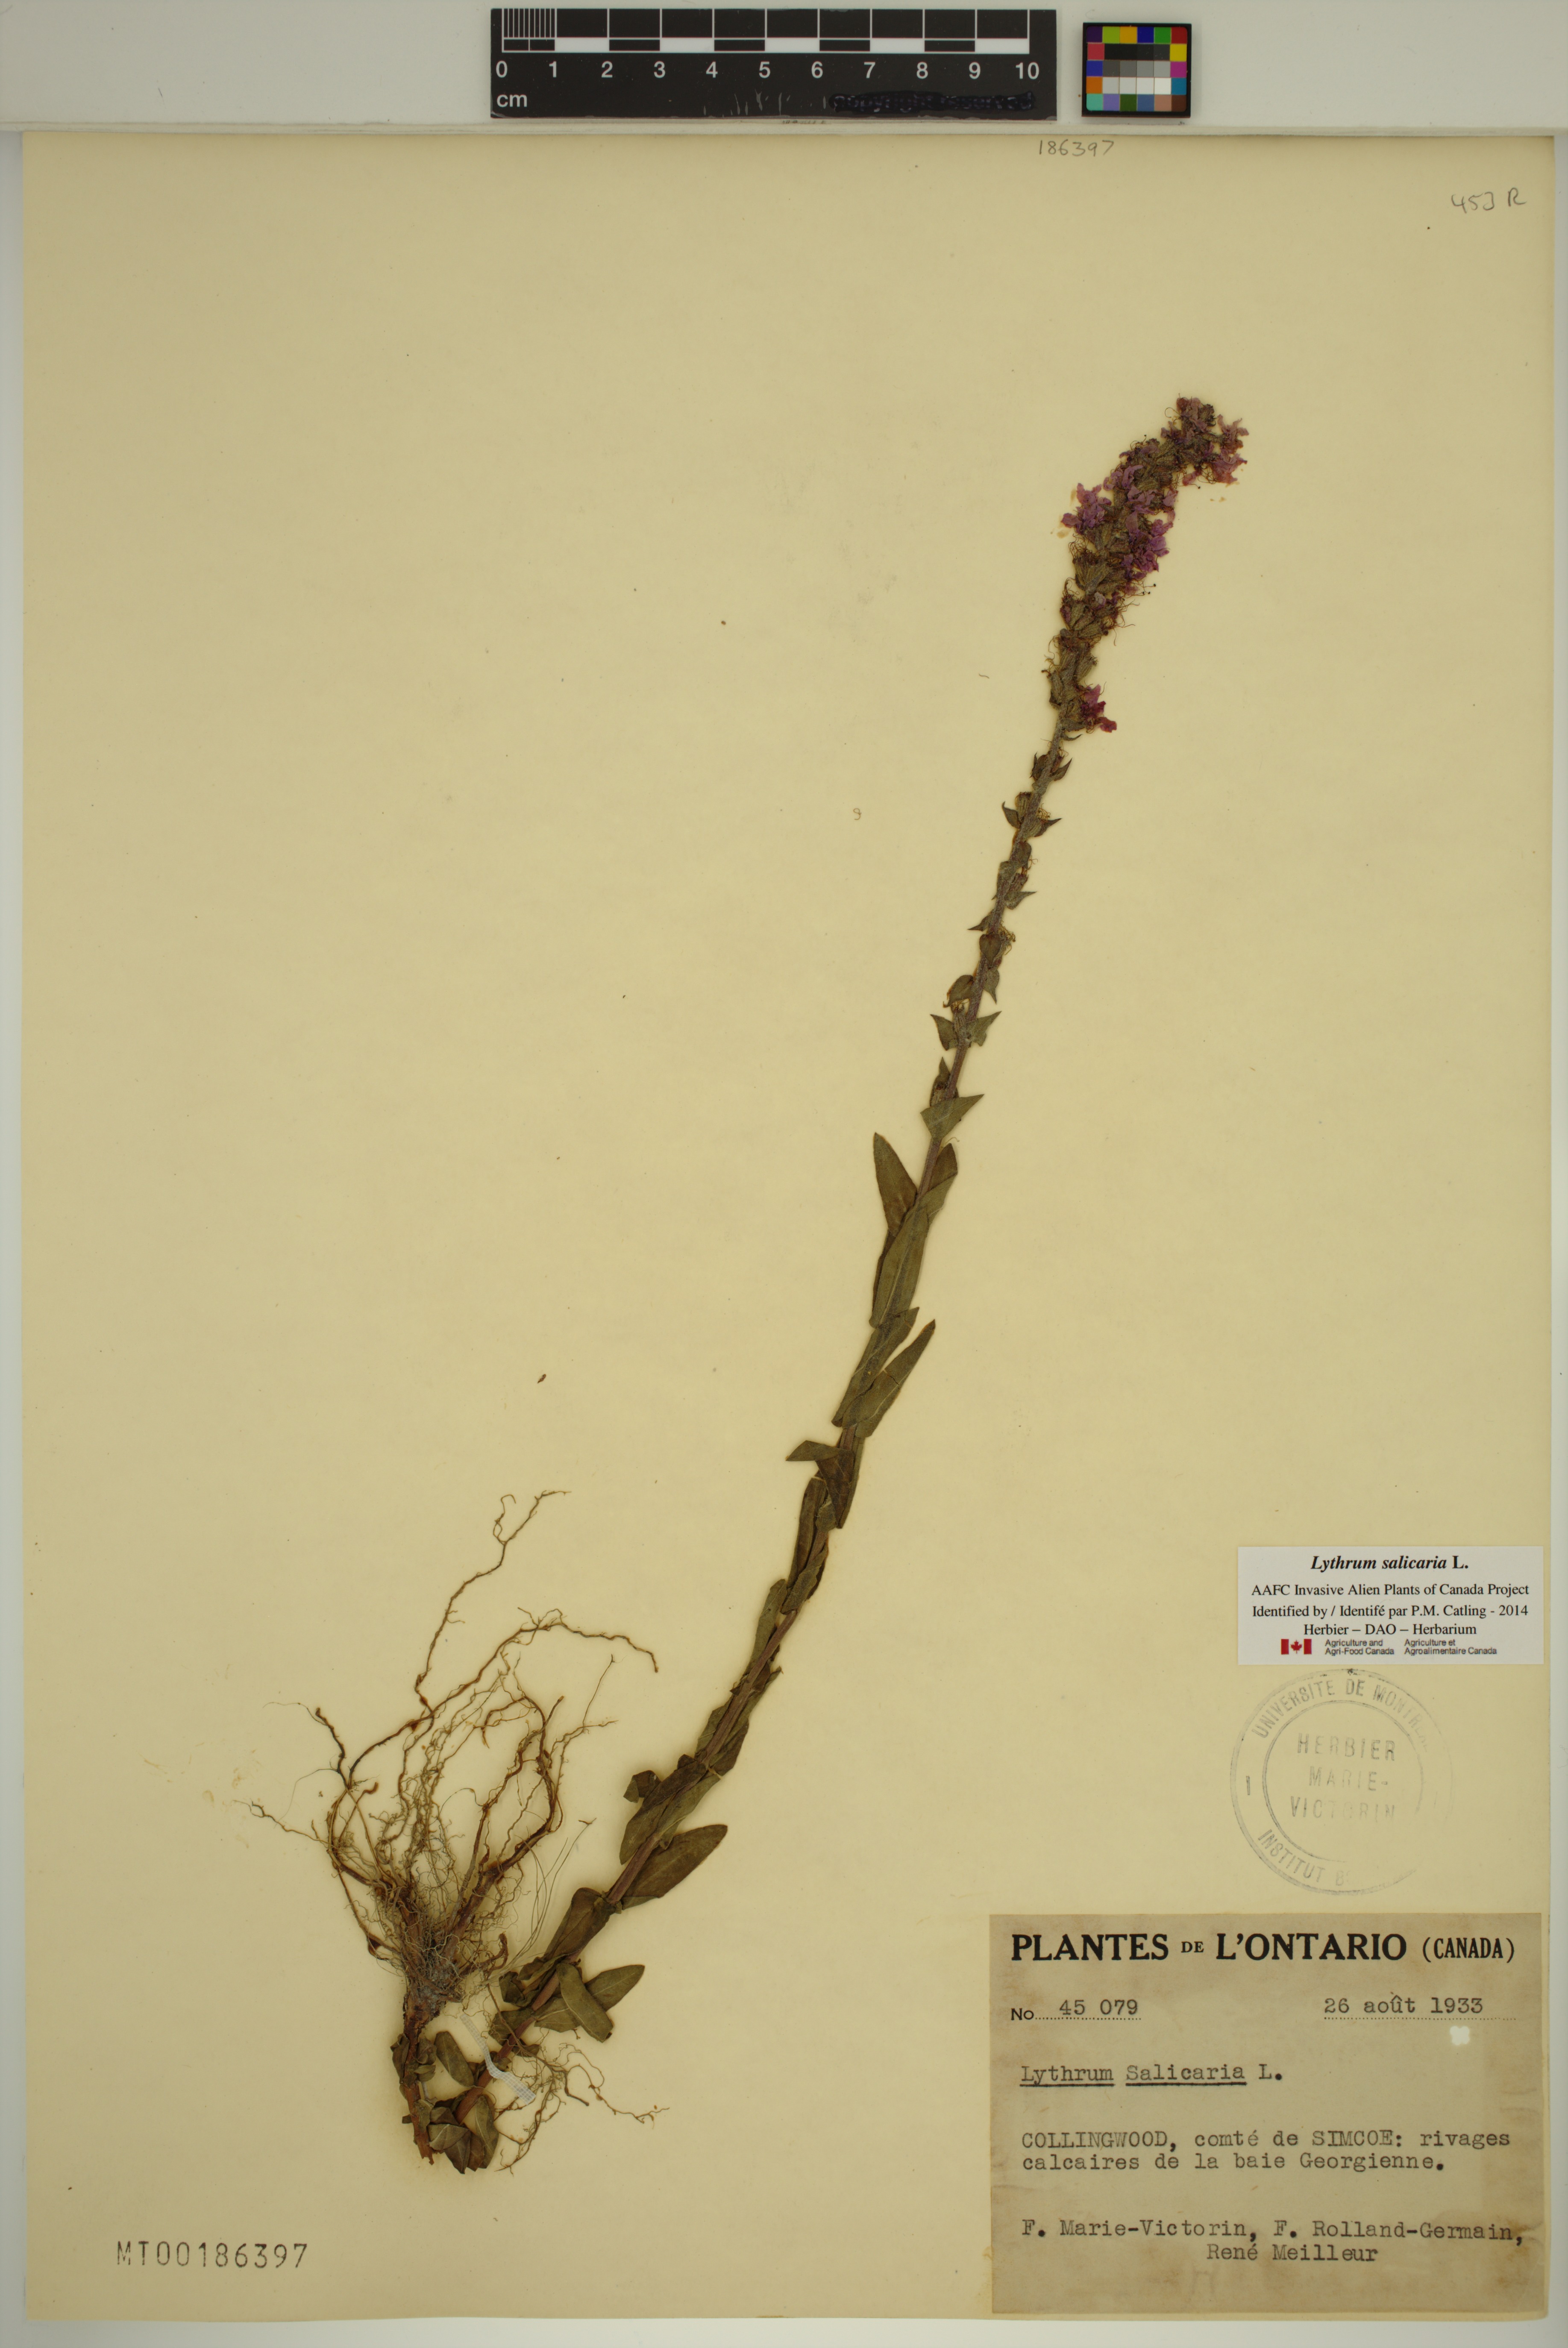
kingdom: Plantae
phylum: Tracheophyta
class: Magnoliopsida
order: Myrtales
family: Lythraceae
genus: Lythrum
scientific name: Lythrum salicaria
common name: Purple loosestrife
